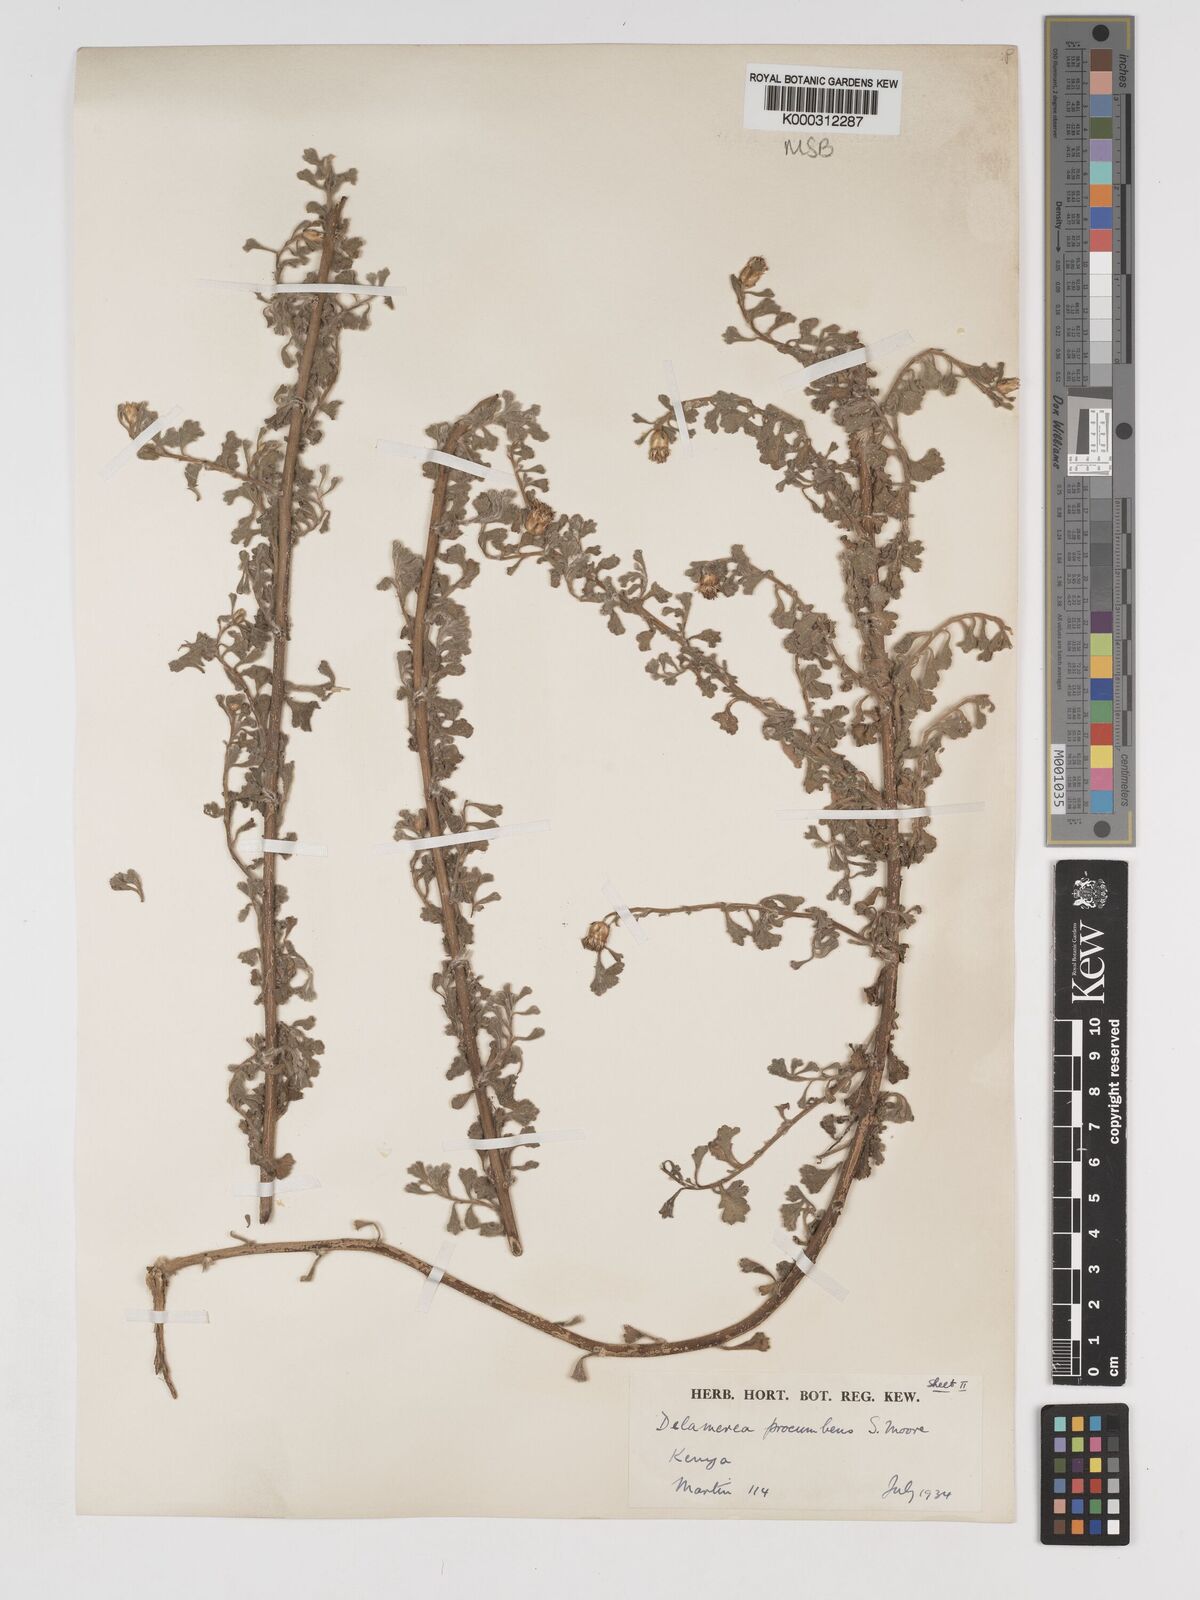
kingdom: Plantae
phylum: Tracheophyta
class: Magnoliopsida
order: Asterales
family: Asteraceae
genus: Delamerea
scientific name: Delamerea procumbens
